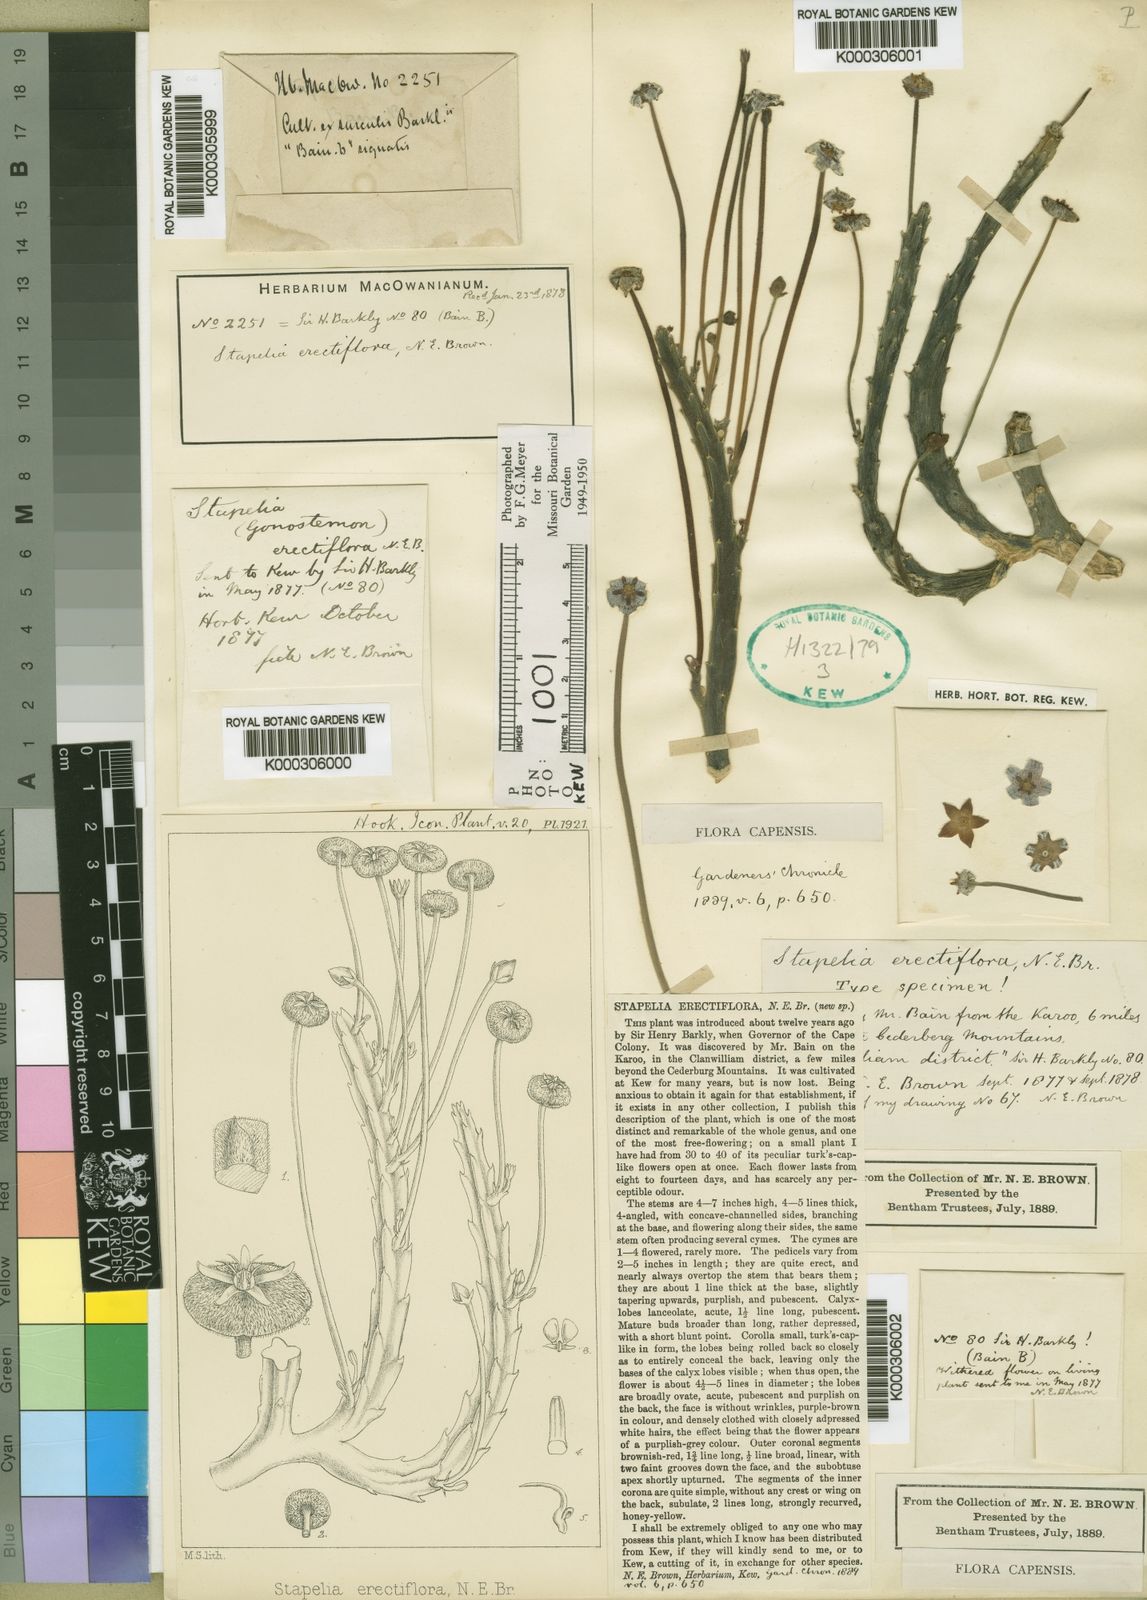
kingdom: Plantae
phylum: Tracheophyta
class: Magnoliopsida
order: Gentianales
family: Apocynaceae
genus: Ceropegia
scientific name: Ceropegia erectiflora
